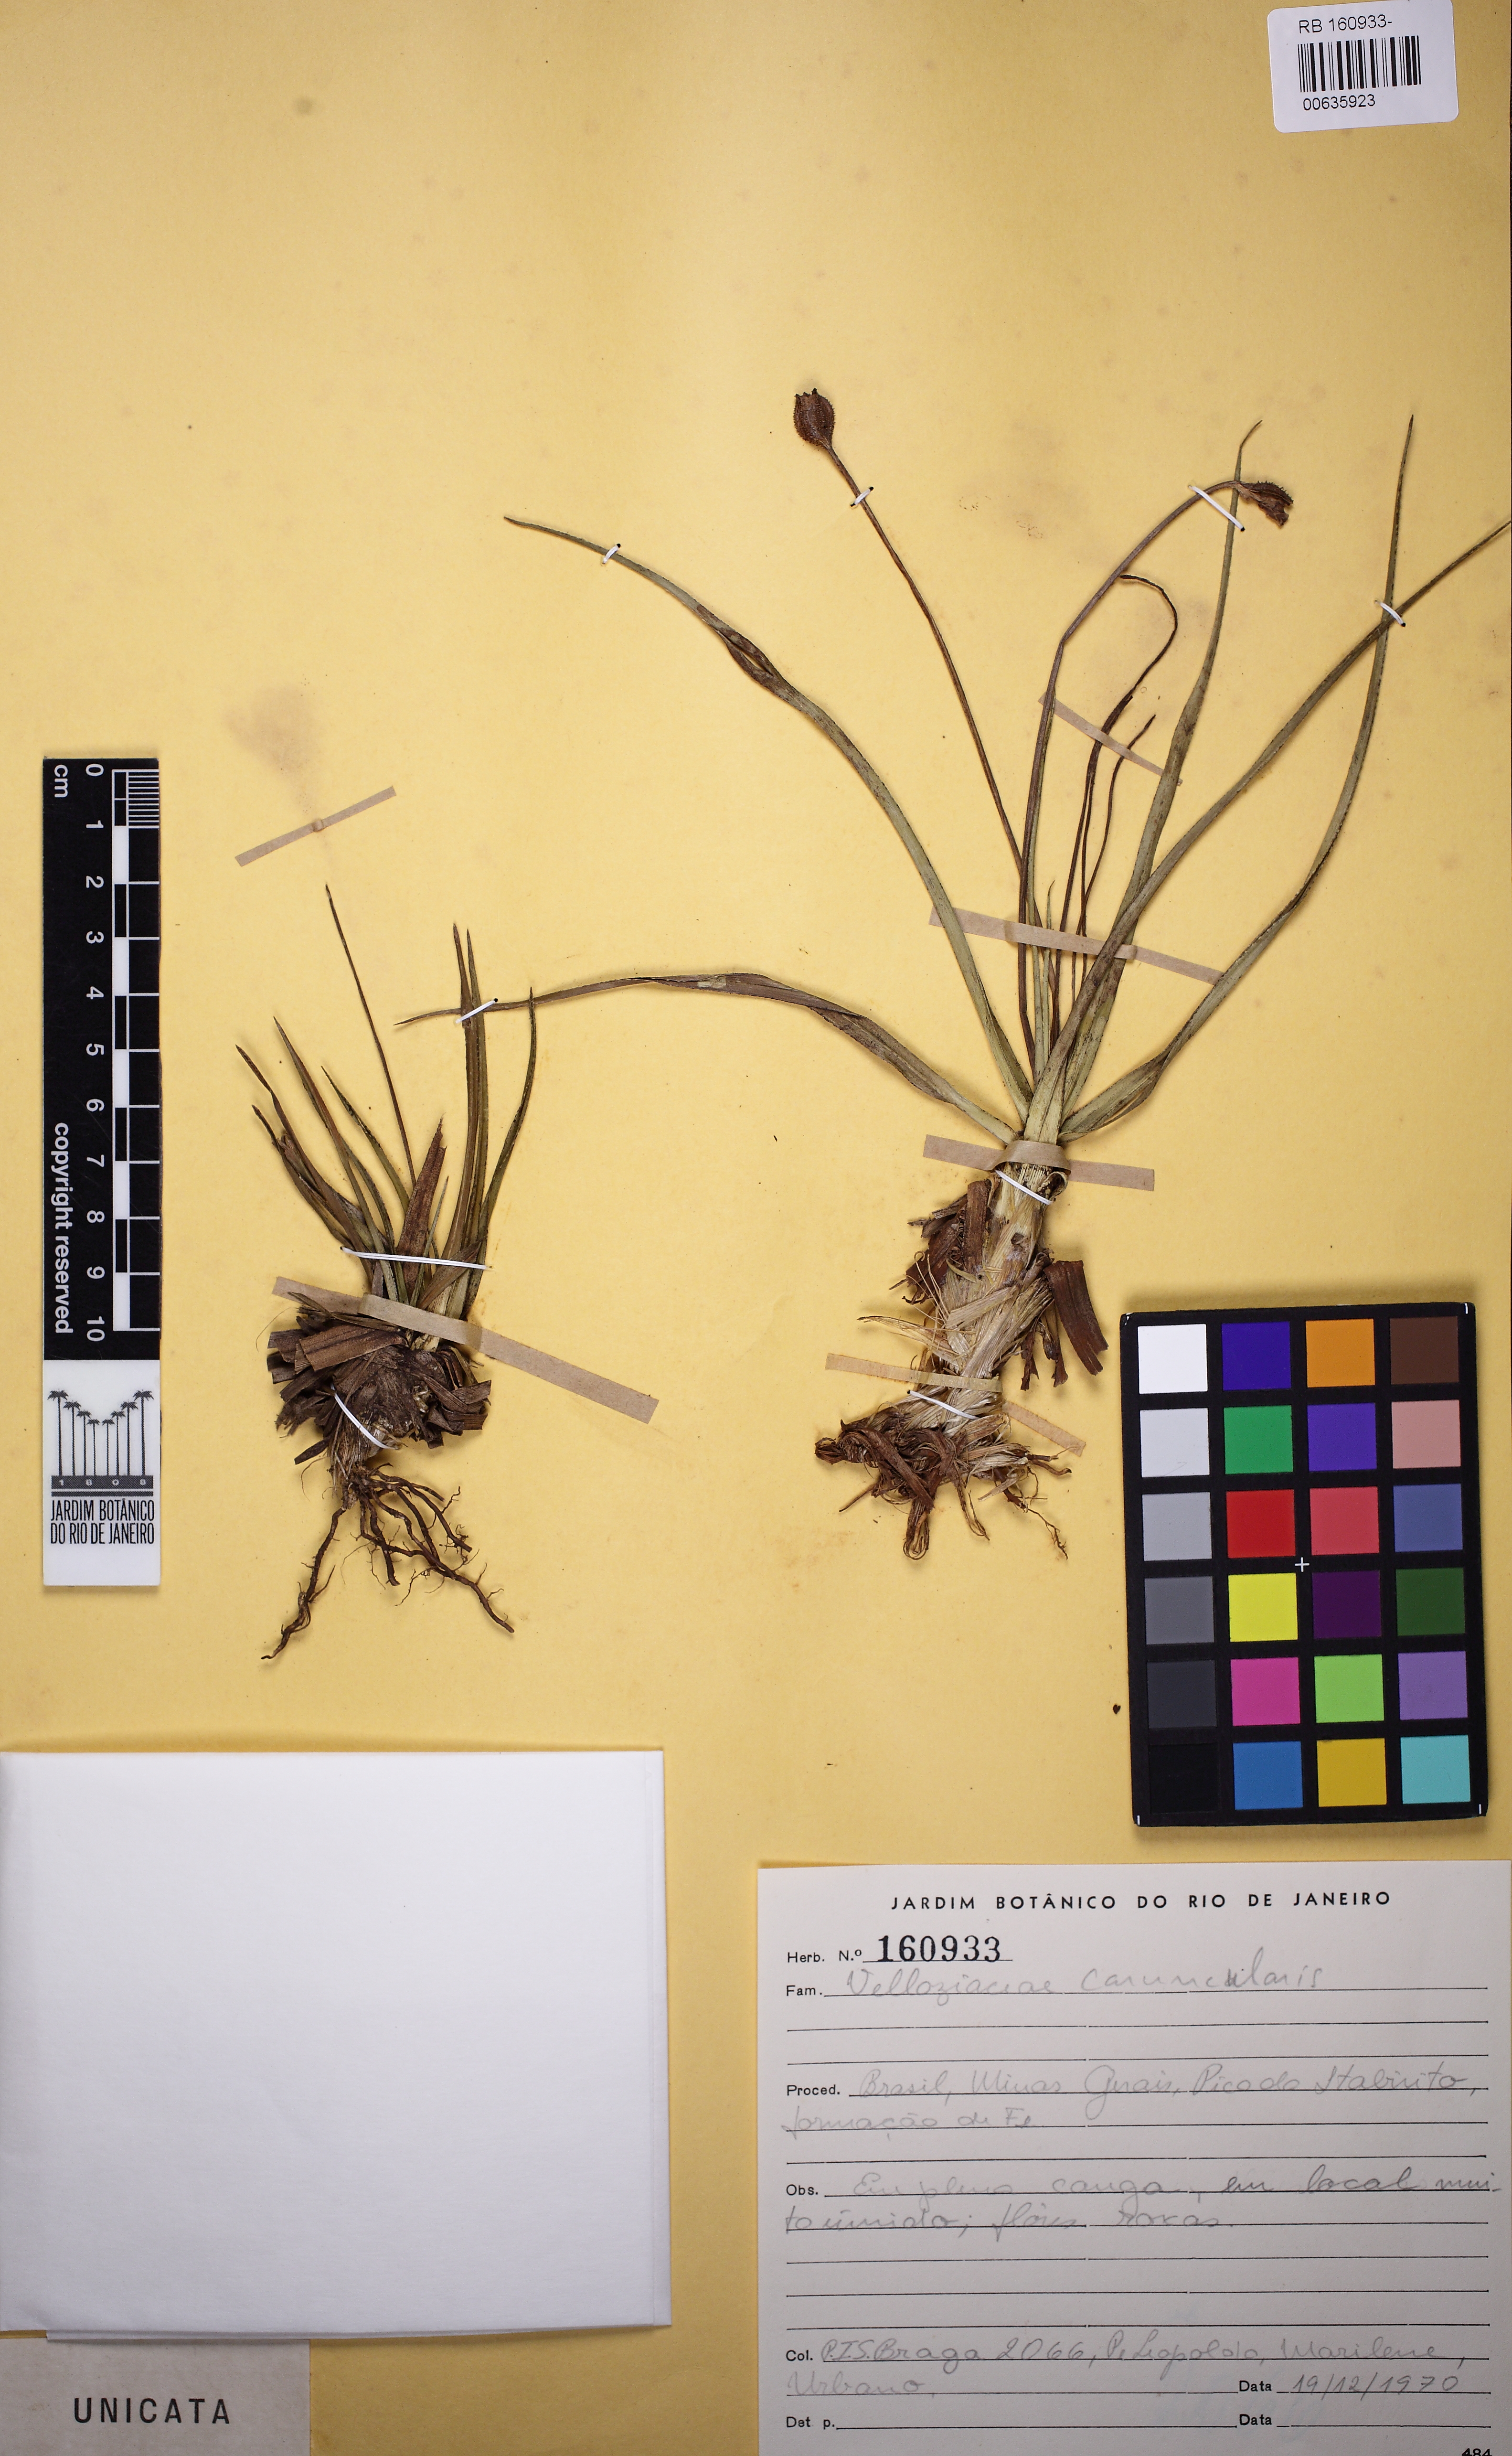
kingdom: Plantae
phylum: Tracheophyta
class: Liliopsida
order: Pandanales
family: Velloziaceae
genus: Vellozia
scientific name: Vellozia caruncularis
